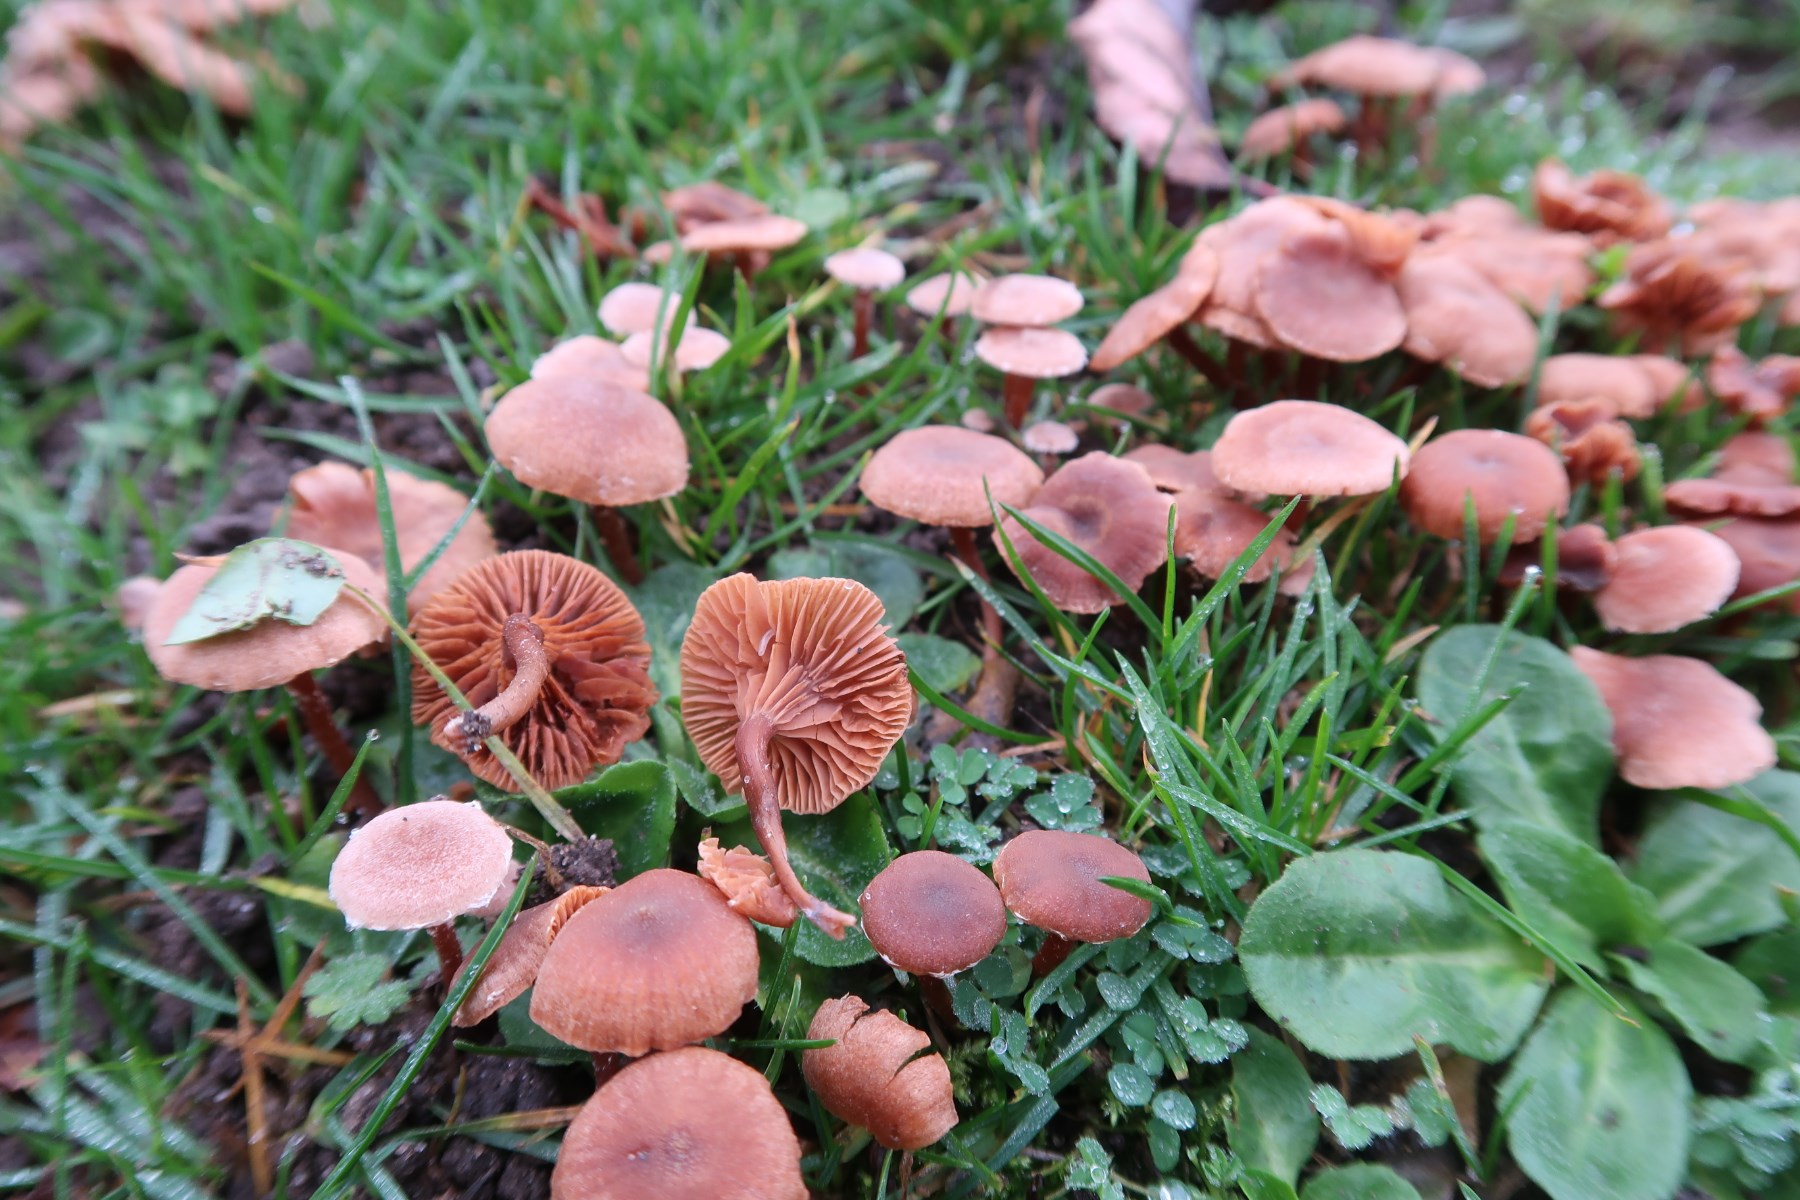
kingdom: Fungi
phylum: Basidiomycota
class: Agaricomycetes
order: Agaricales
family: Tubariaceae
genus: Tubaria
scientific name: Tubaria conspersa
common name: bleg fnughat
